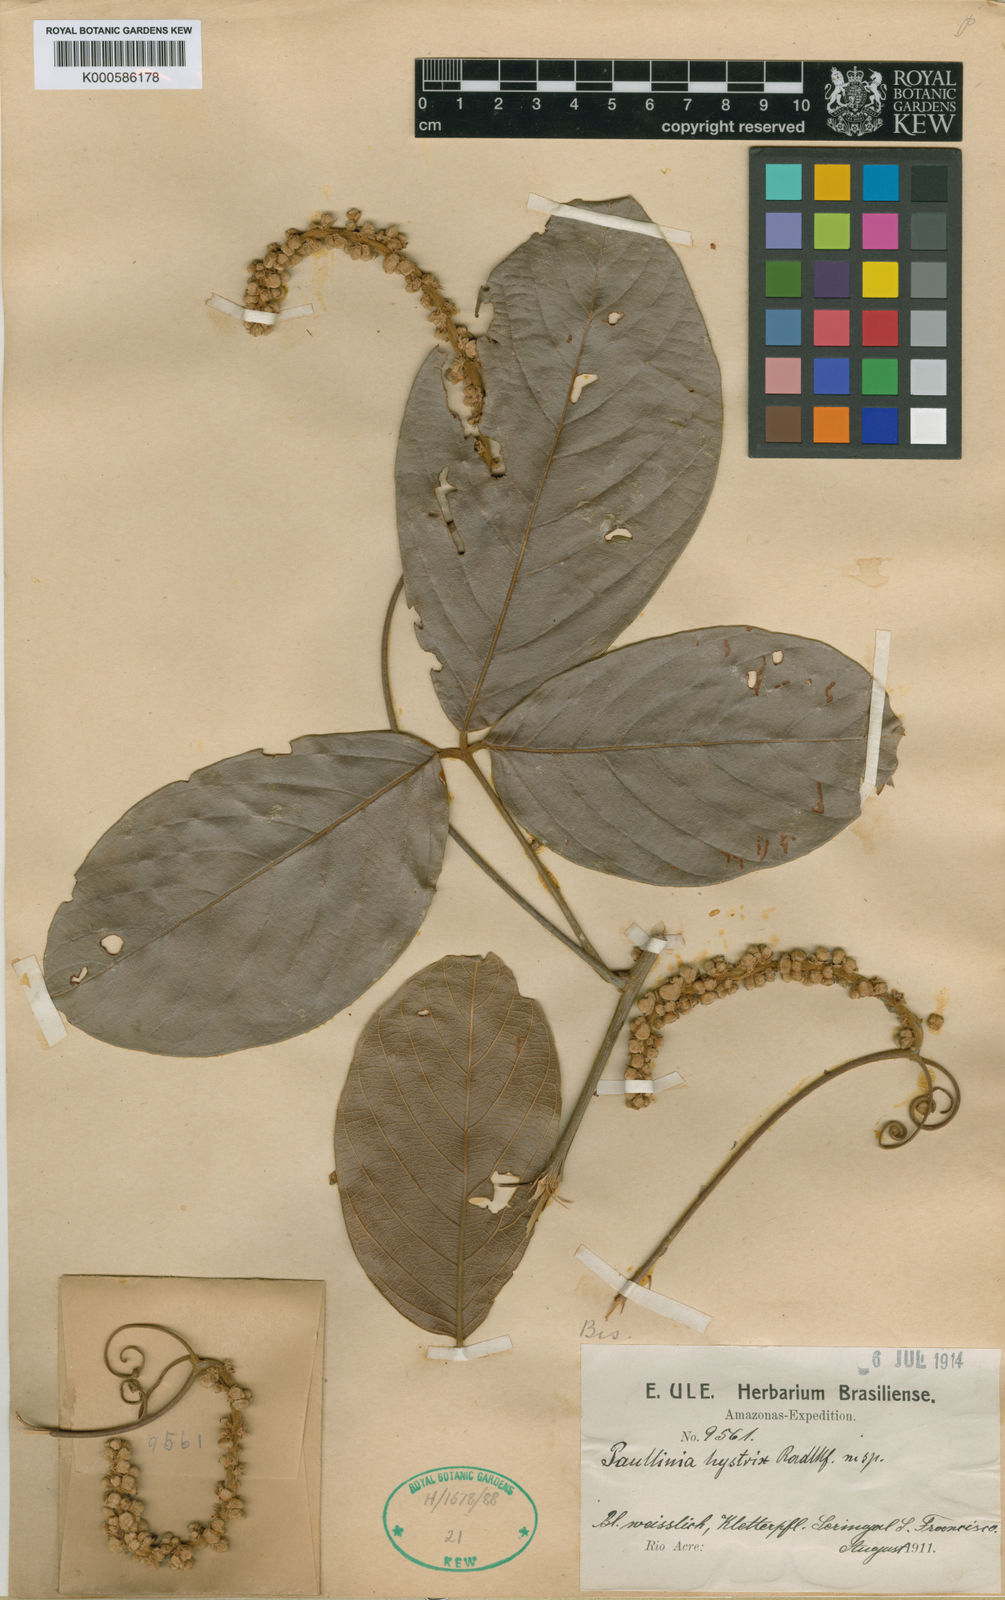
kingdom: Plantae
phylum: Tracheophyta
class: Magnoliopsida
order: Sapindales
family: Sapindaceae
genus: Paullinia
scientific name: Paullinia hystrix
